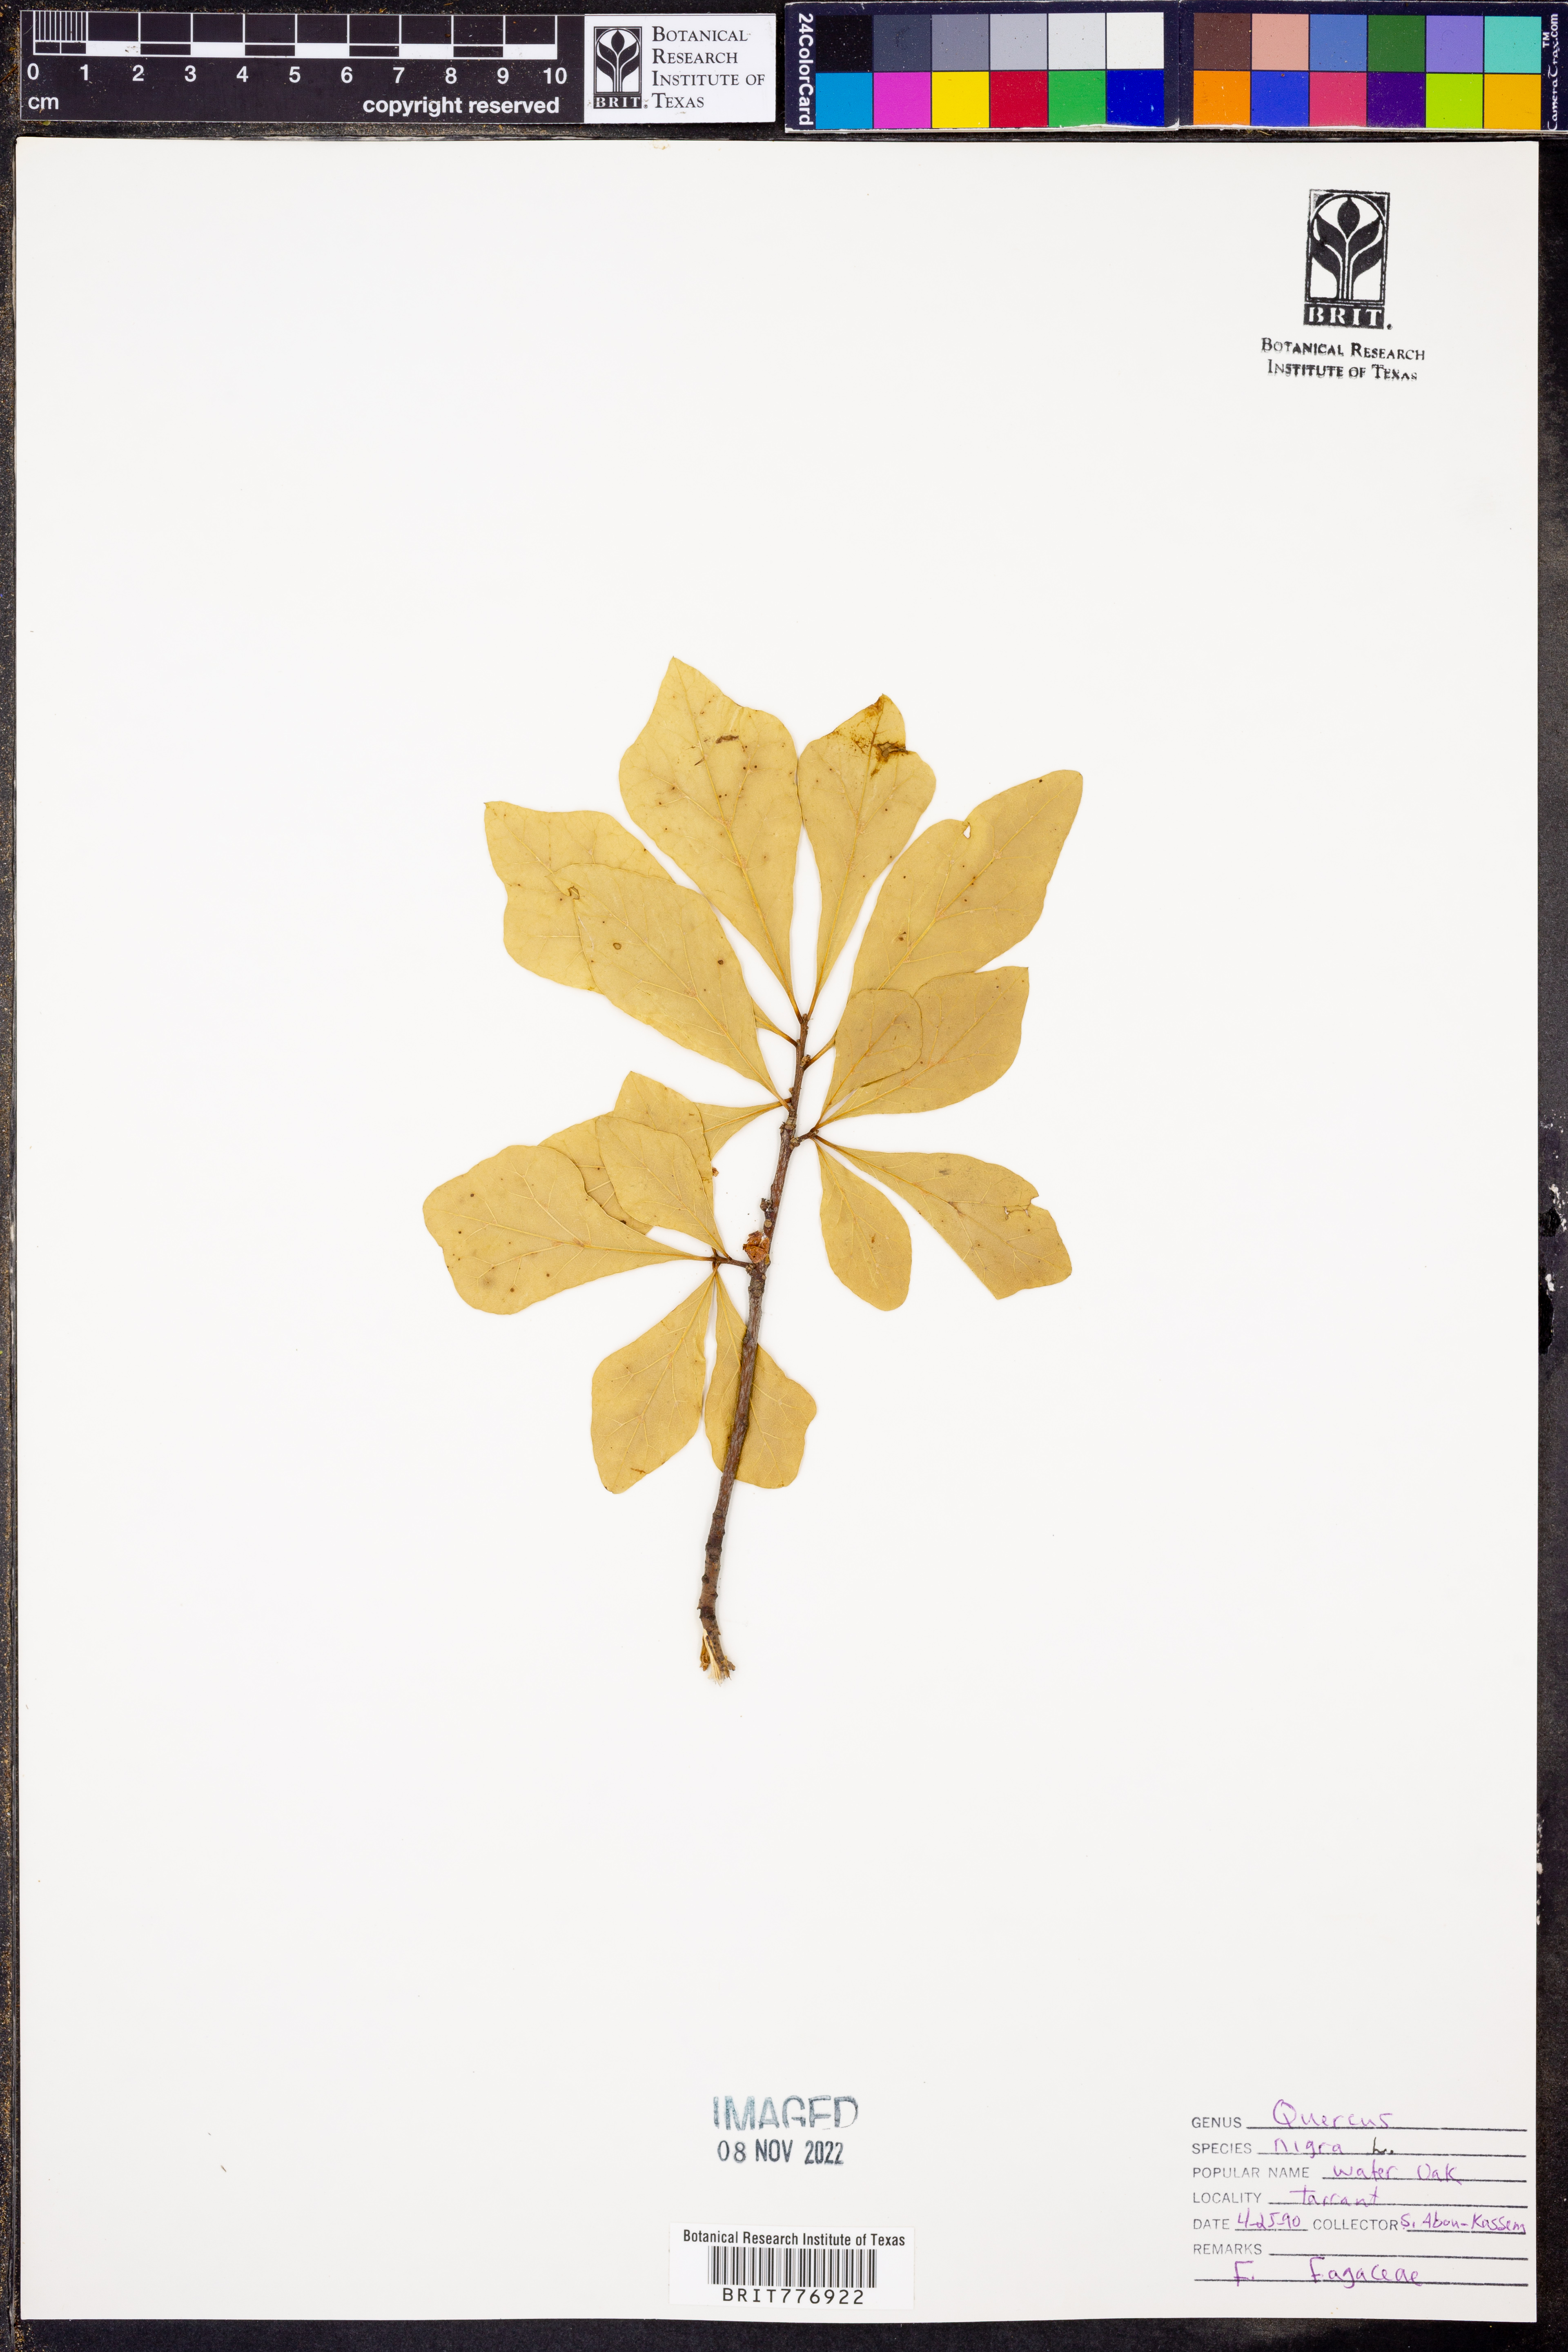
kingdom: Plantae
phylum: Tracheophyta
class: Magnoliopsida
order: Fagales
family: Fagaceae
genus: Quercus
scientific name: Quercus nigra
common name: Water oak
